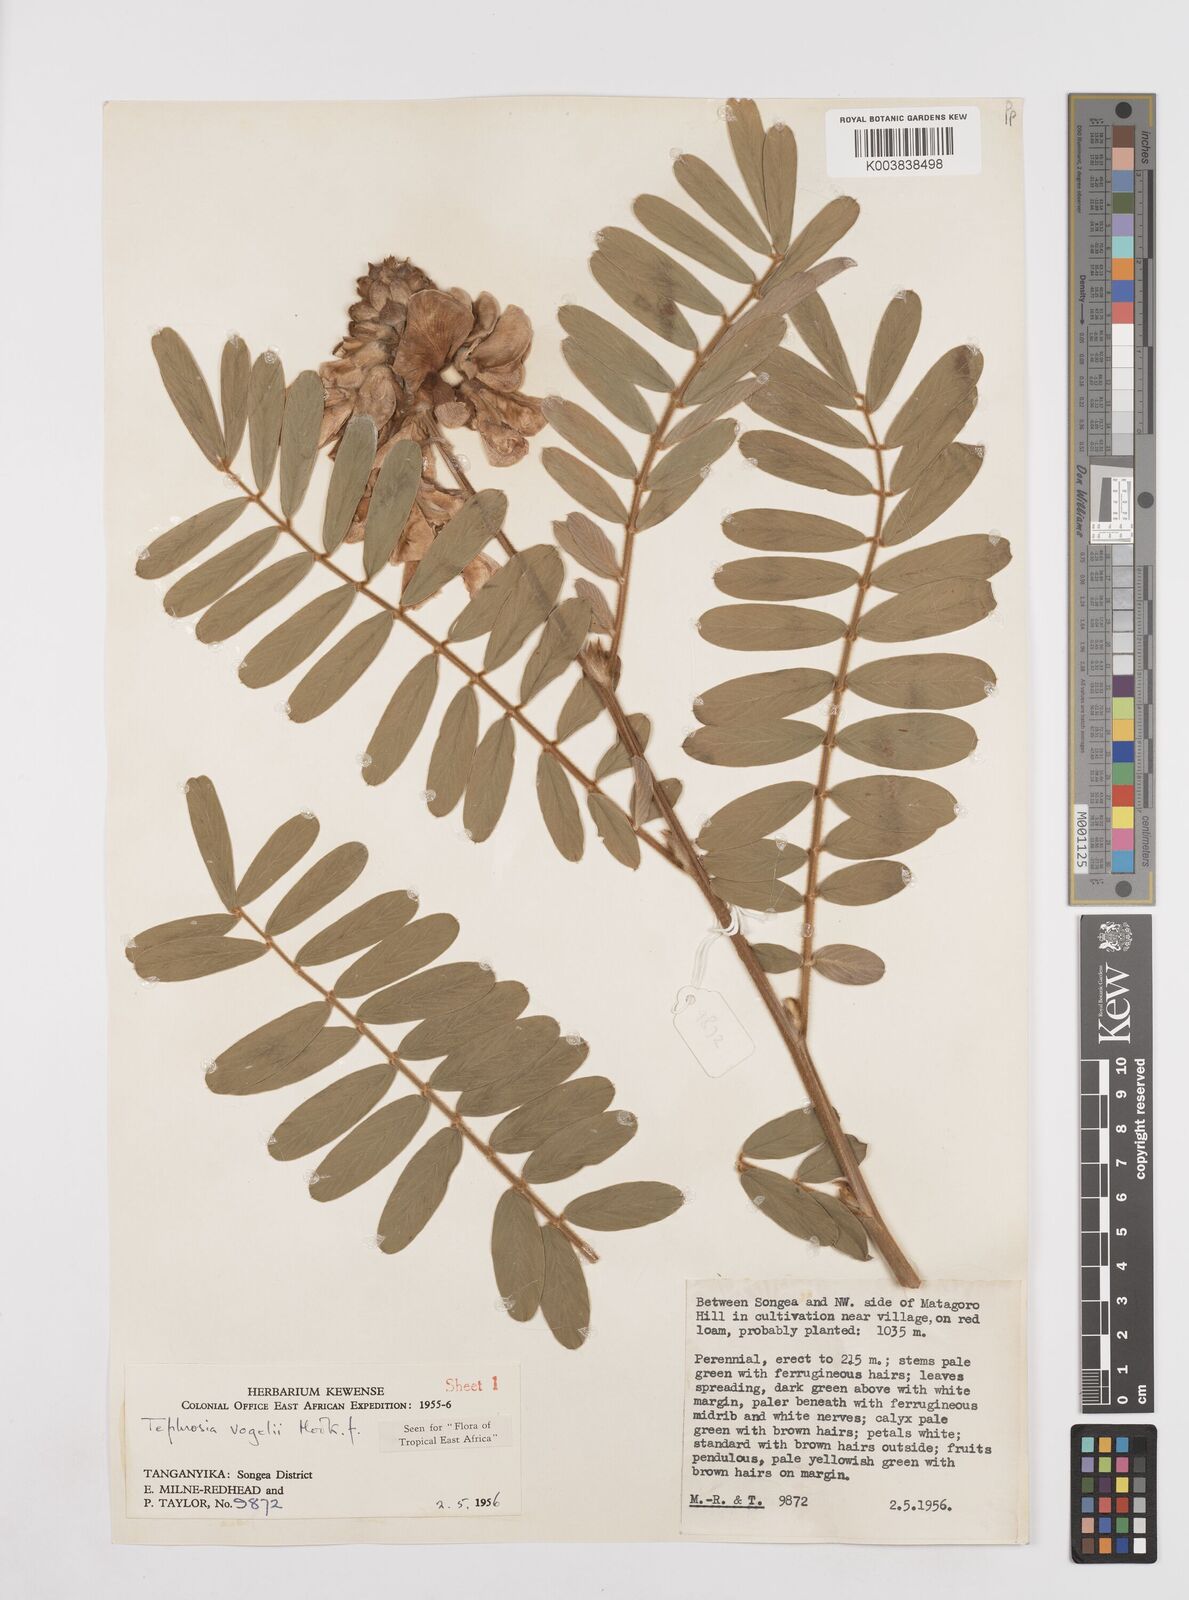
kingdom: Plantae
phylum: Tracheophyta
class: Magnoliopsida
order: Fabales
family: Fabaceae
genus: Tephrosia
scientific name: Tephrosia vogelii
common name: Vogel tephrosia
